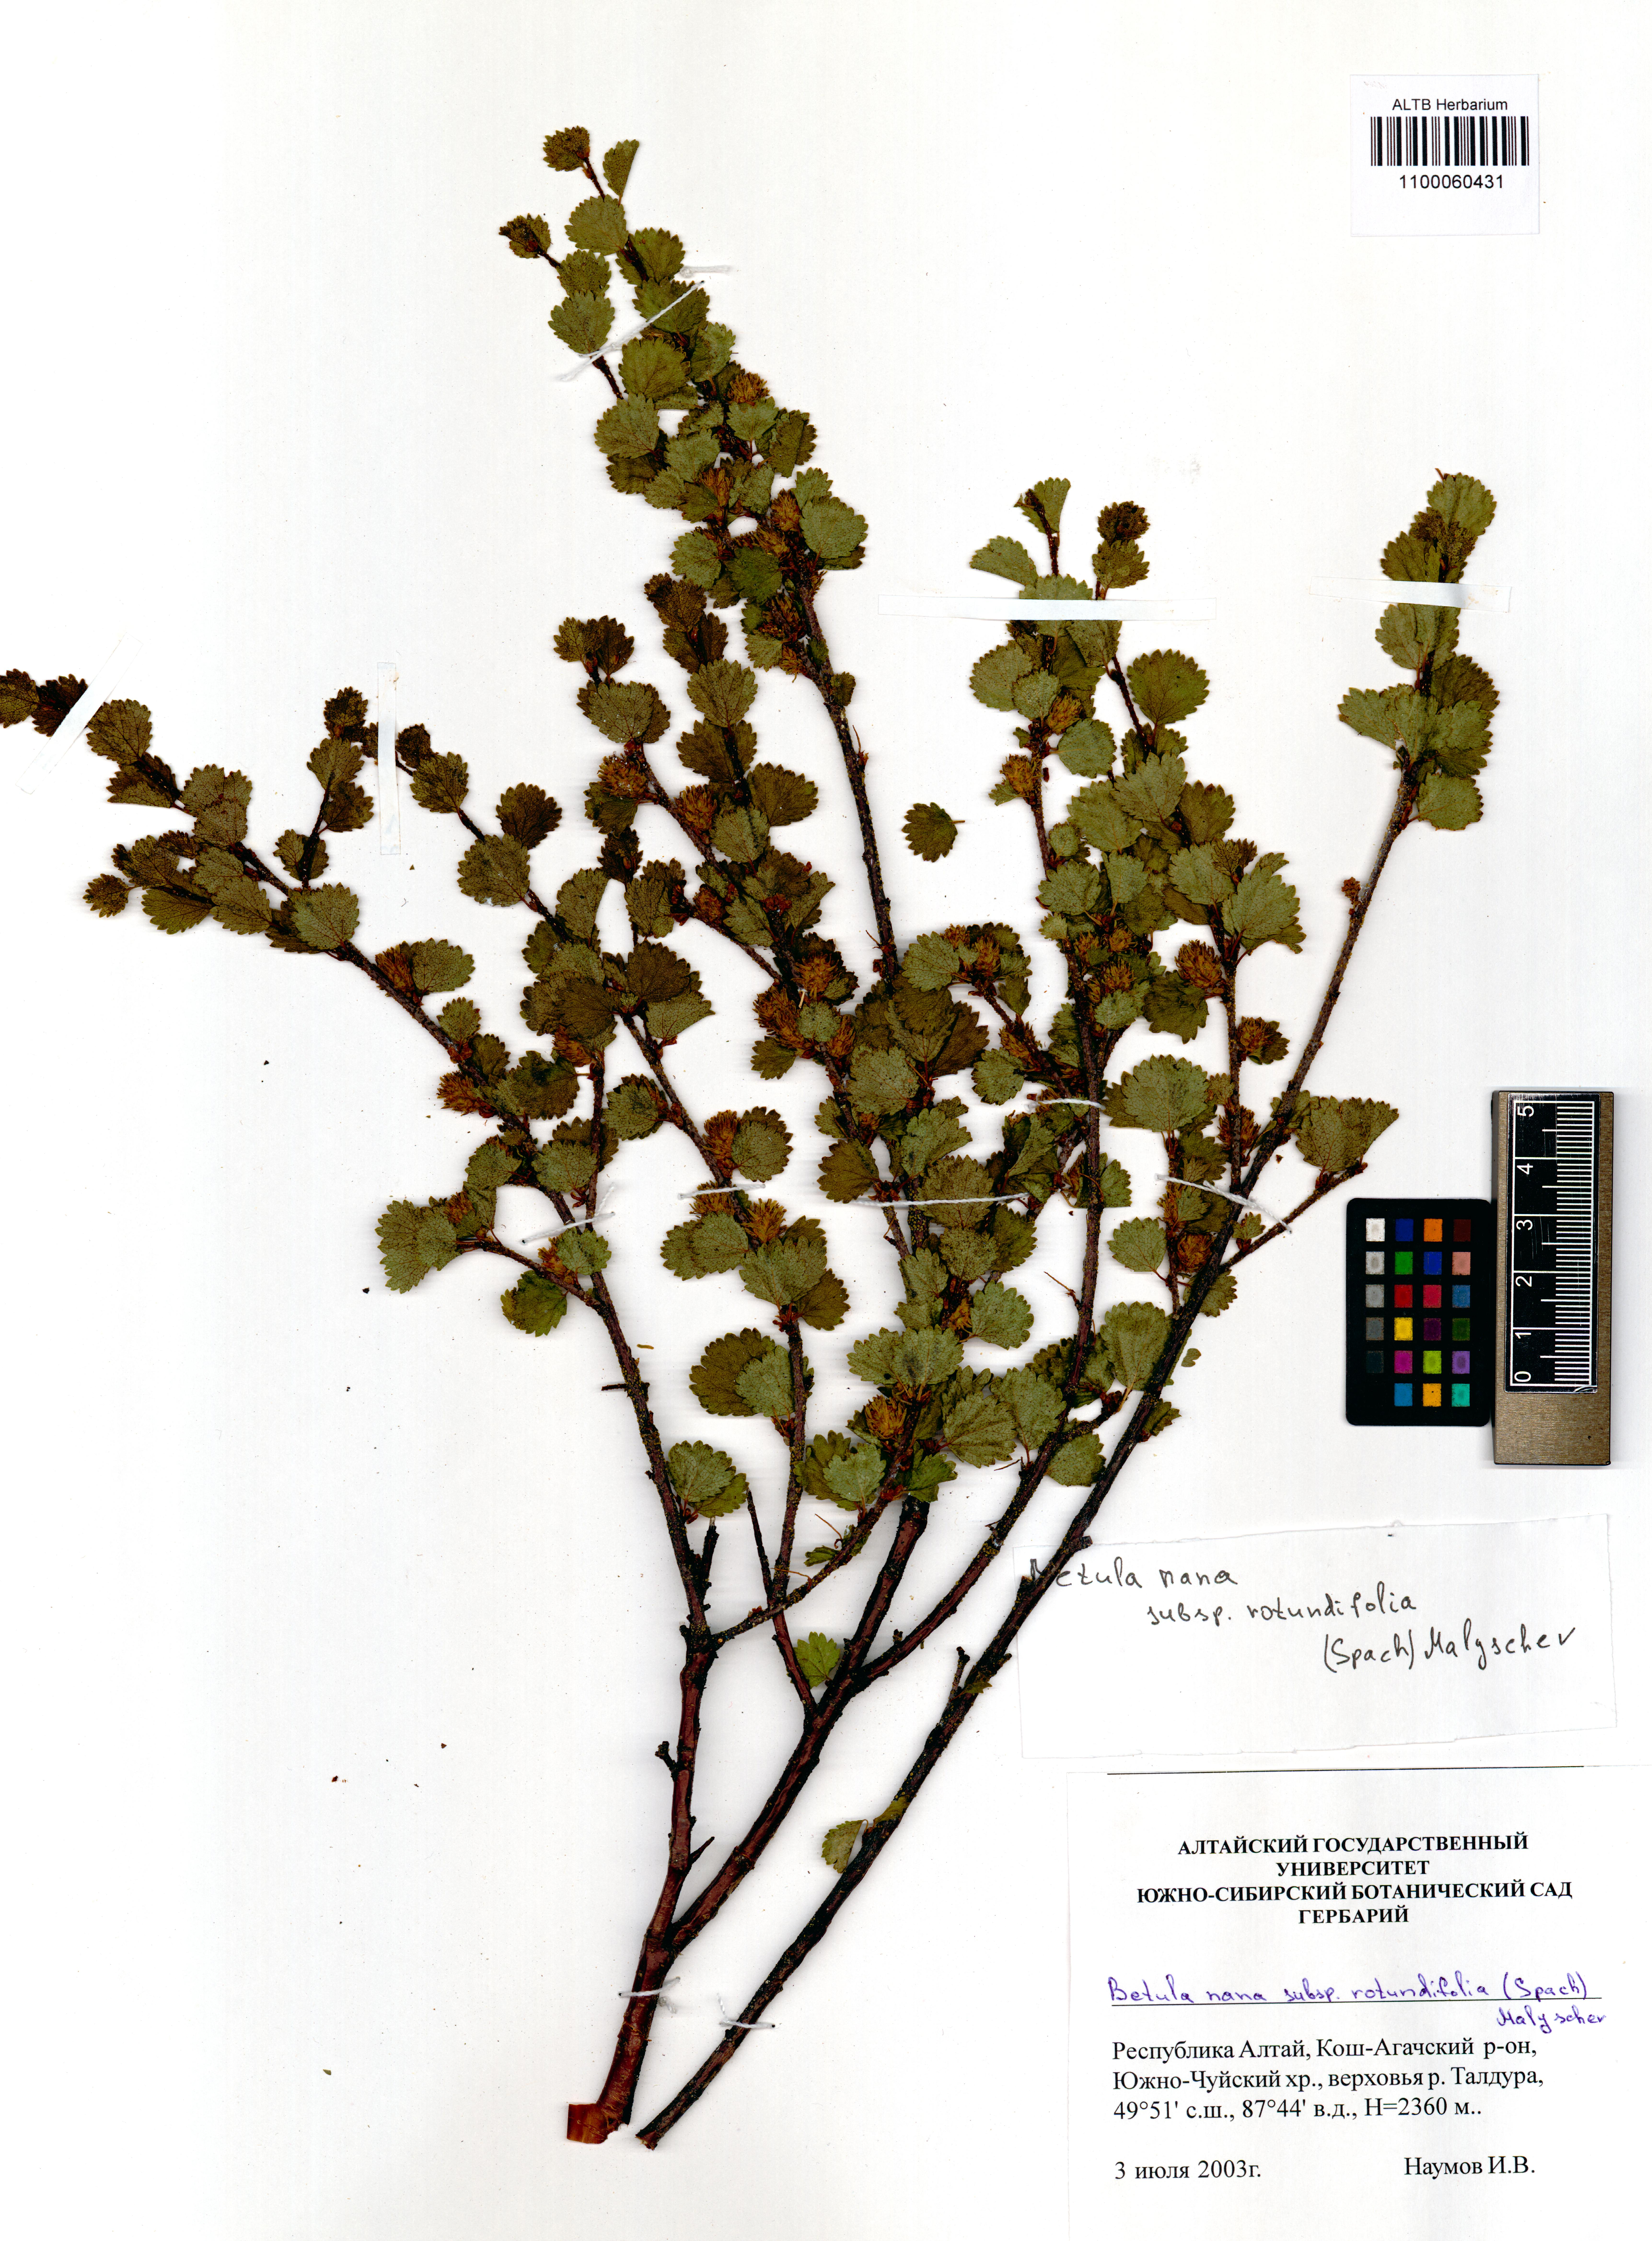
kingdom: Plantae
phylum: Tracheophyta
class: Magnoliopsida
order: Fagales
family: Betulaceae
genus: Betula
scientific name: Betula glandulosa
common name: Dwarf birch
